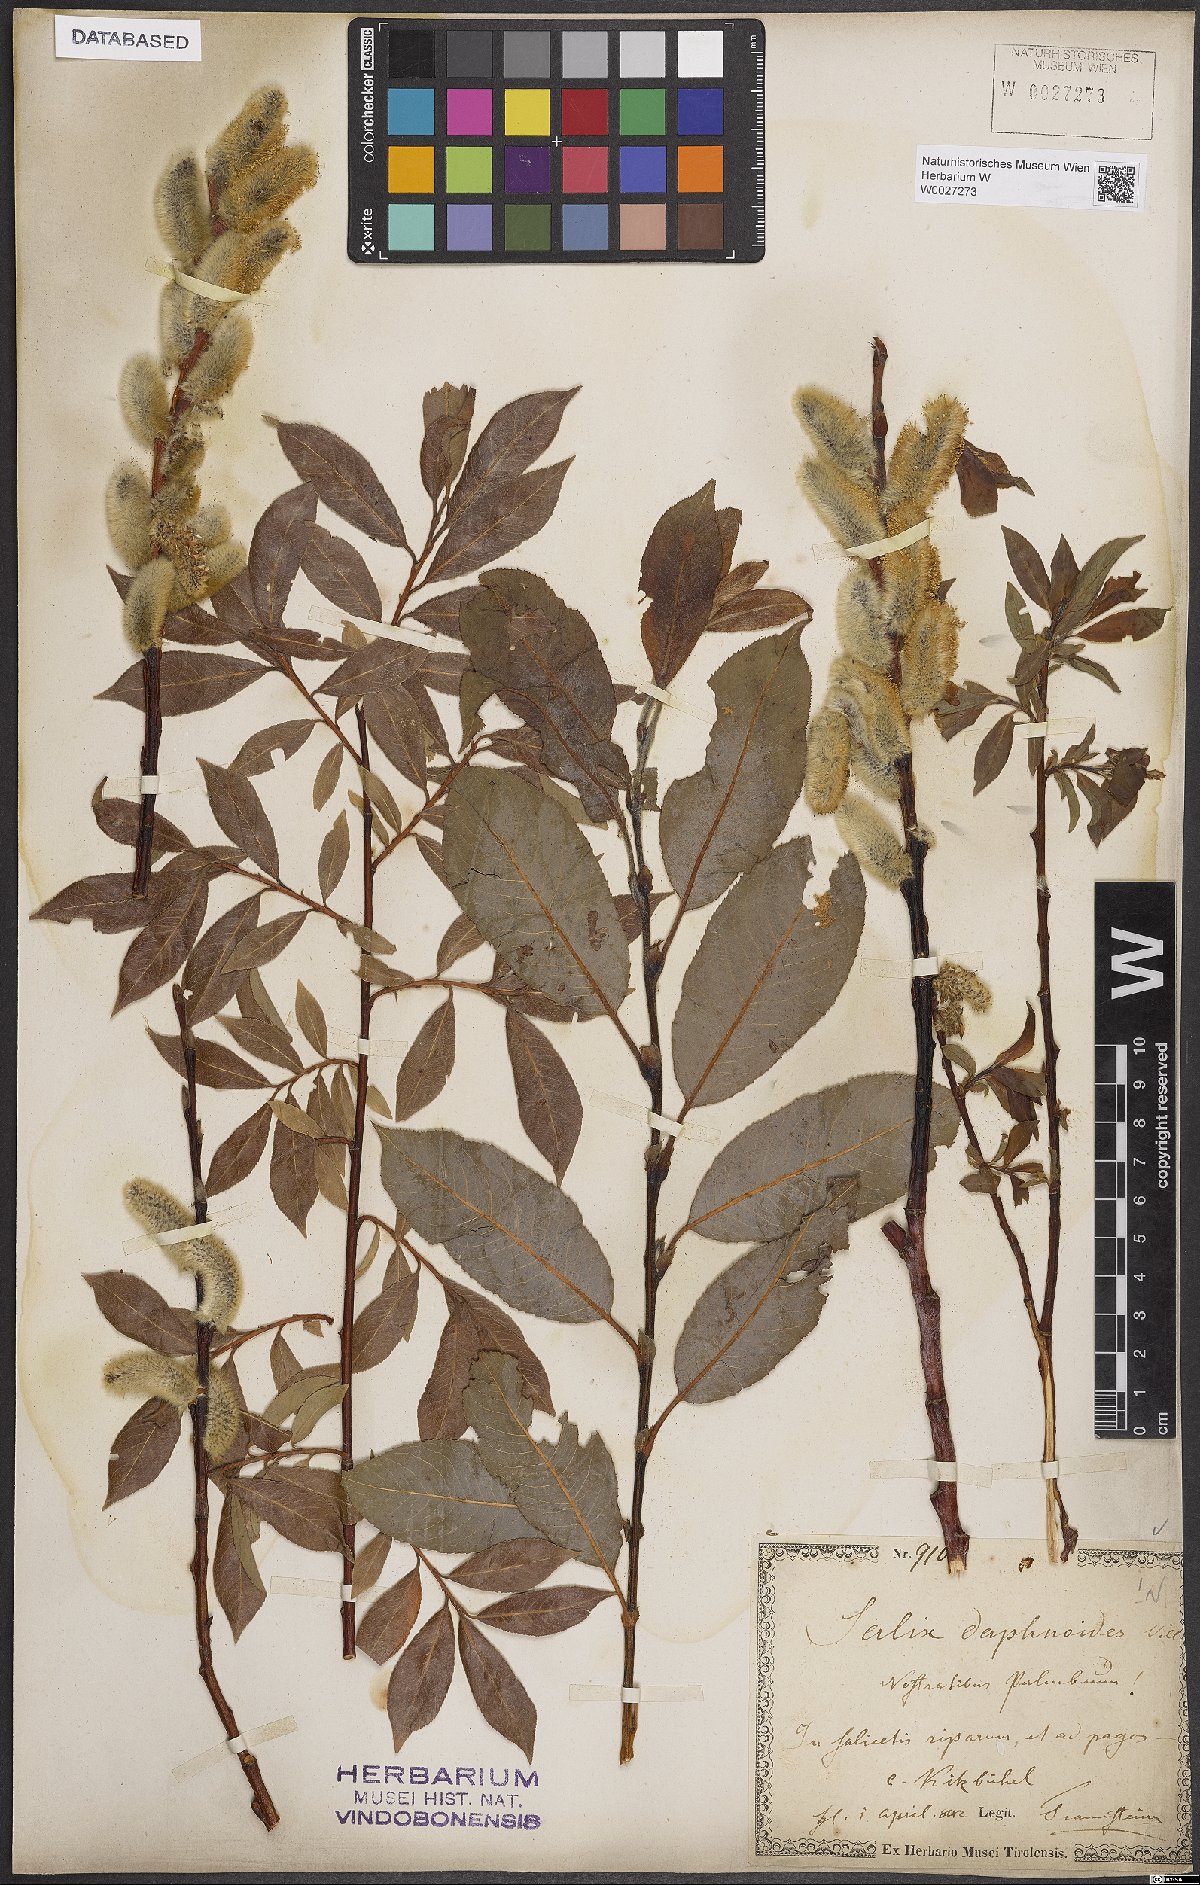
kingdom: Plantae
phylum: Tracheophyta
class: Magnoliopsida
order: Malpighiales
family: Salicaceae
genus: Salix
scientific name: Salix daphnoides
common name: European violet-willow
